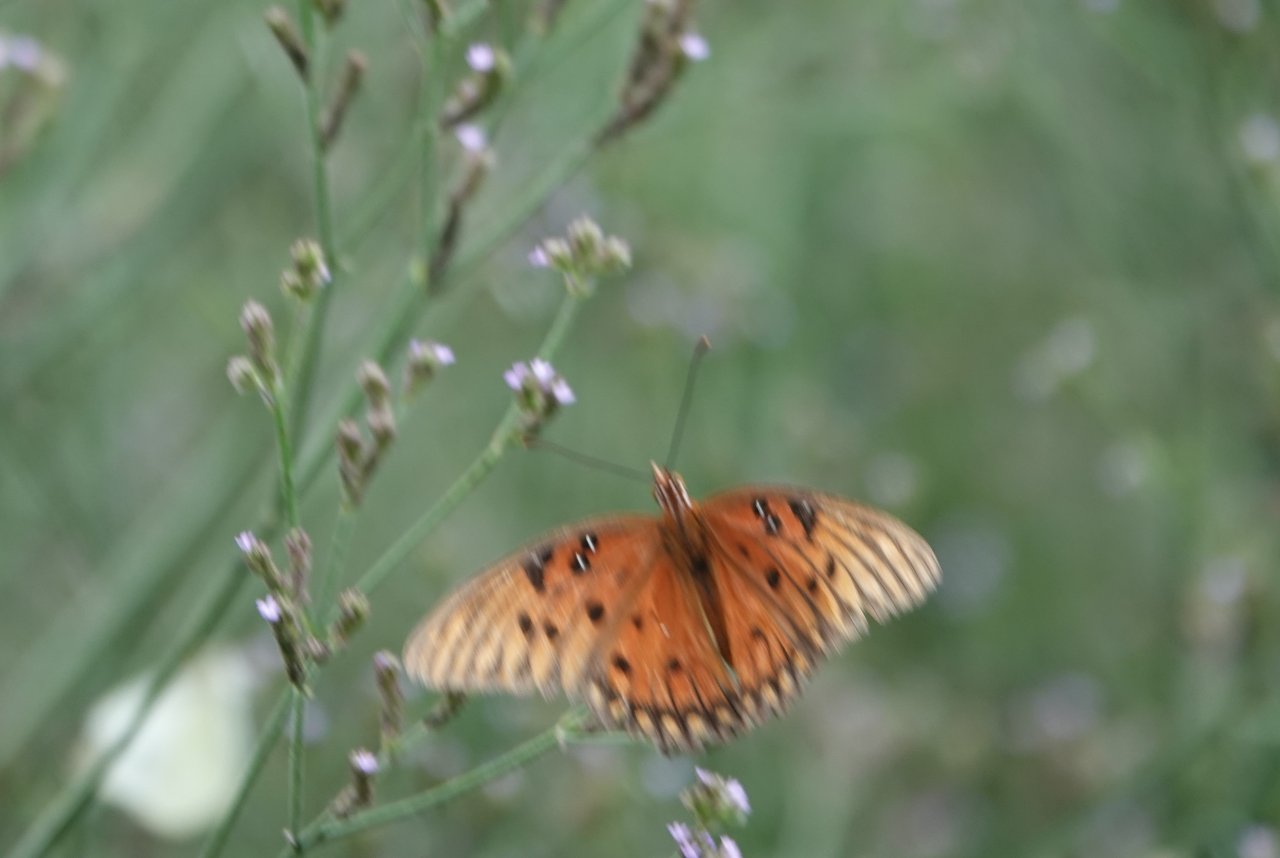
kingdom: Animalia
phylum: Arthropoda
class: Insecta
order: Lepidoptera
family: Nymphalidae
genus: Dione
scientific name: Dione vanillae
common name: Gulf Fritillary
